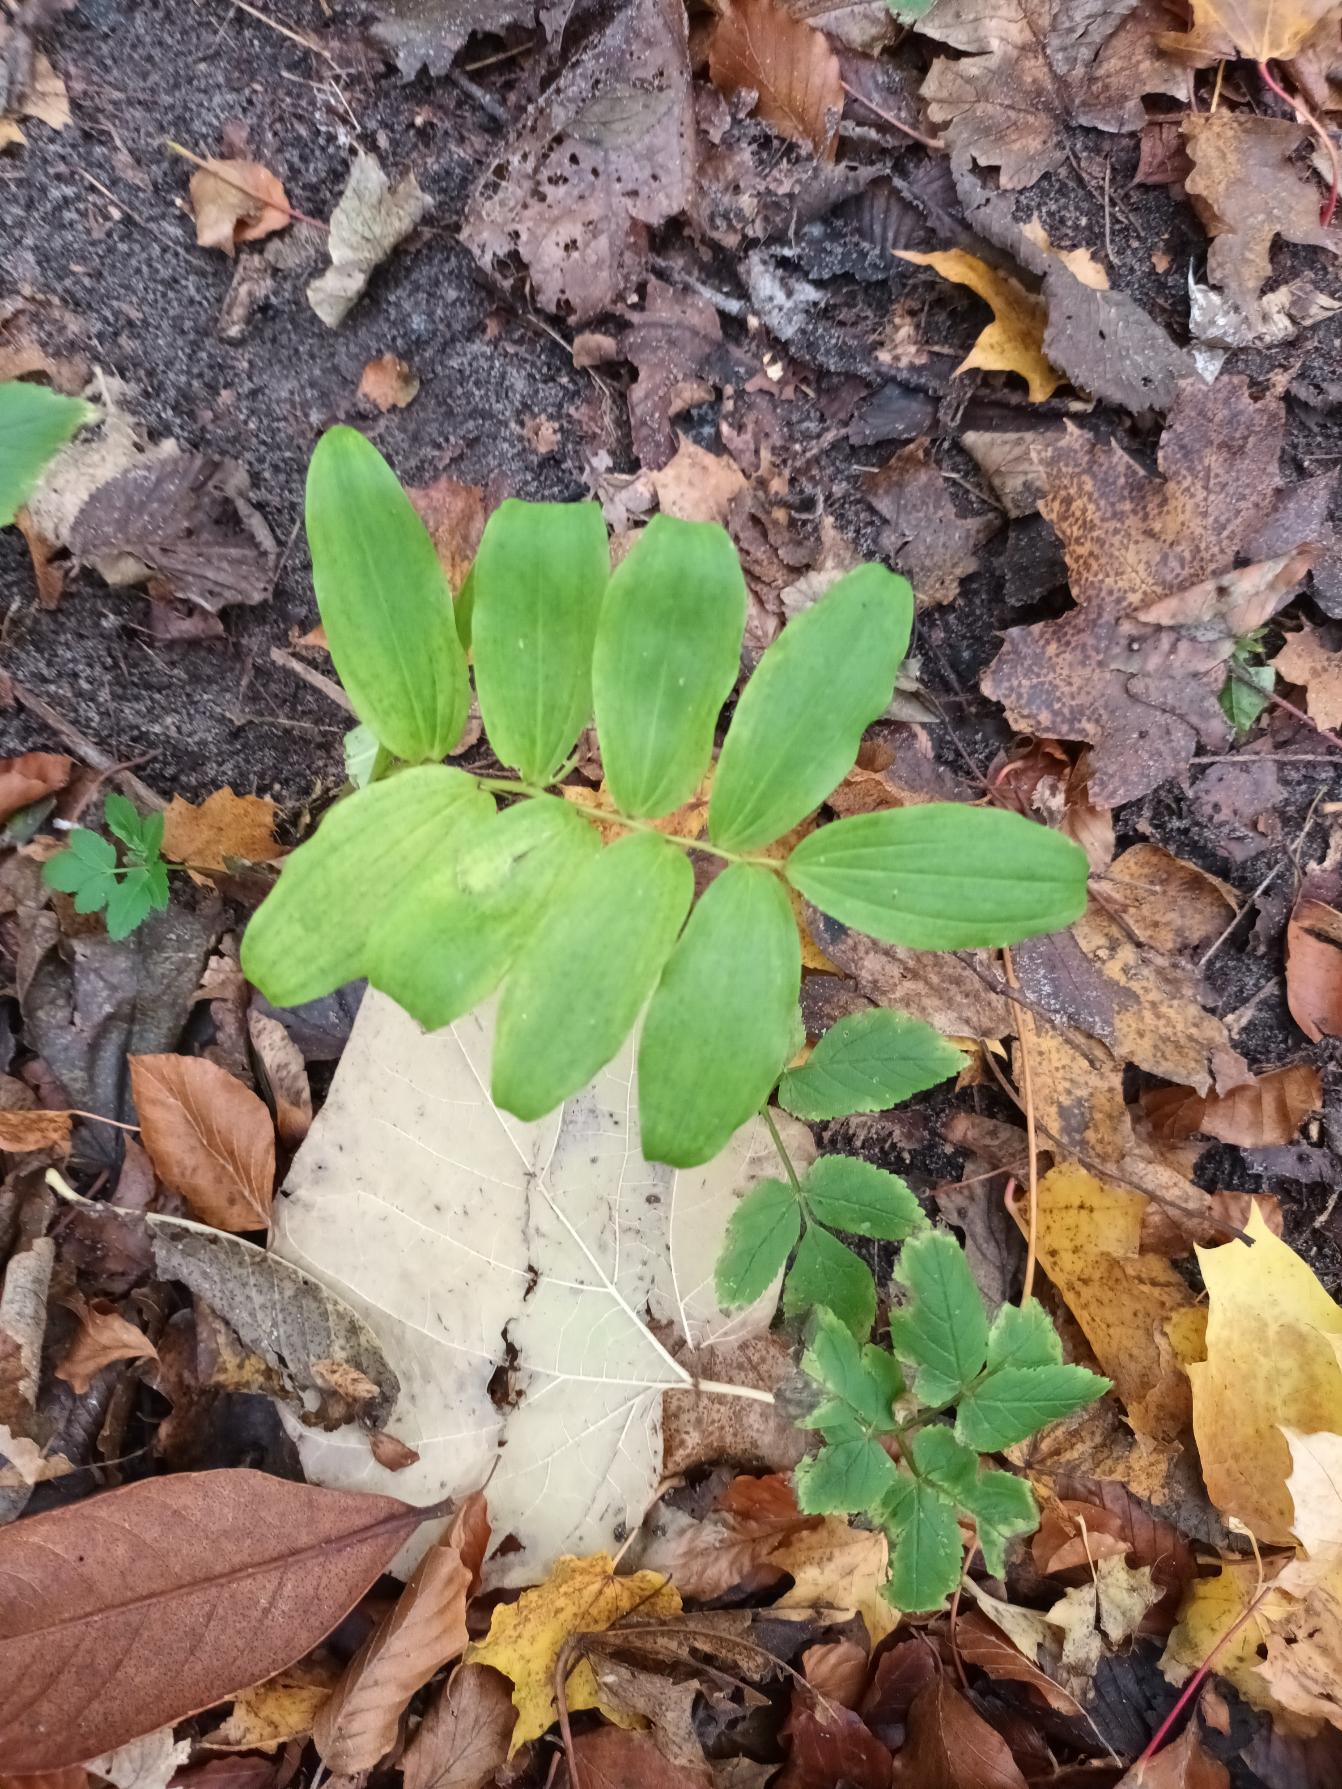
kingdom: Plantae
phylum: Tracheophyta
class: Liliopsida
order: Asparagales
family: Asparagaceae
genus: Polygonatum
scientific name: Polygonatum multiflorum
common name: Stor konval
